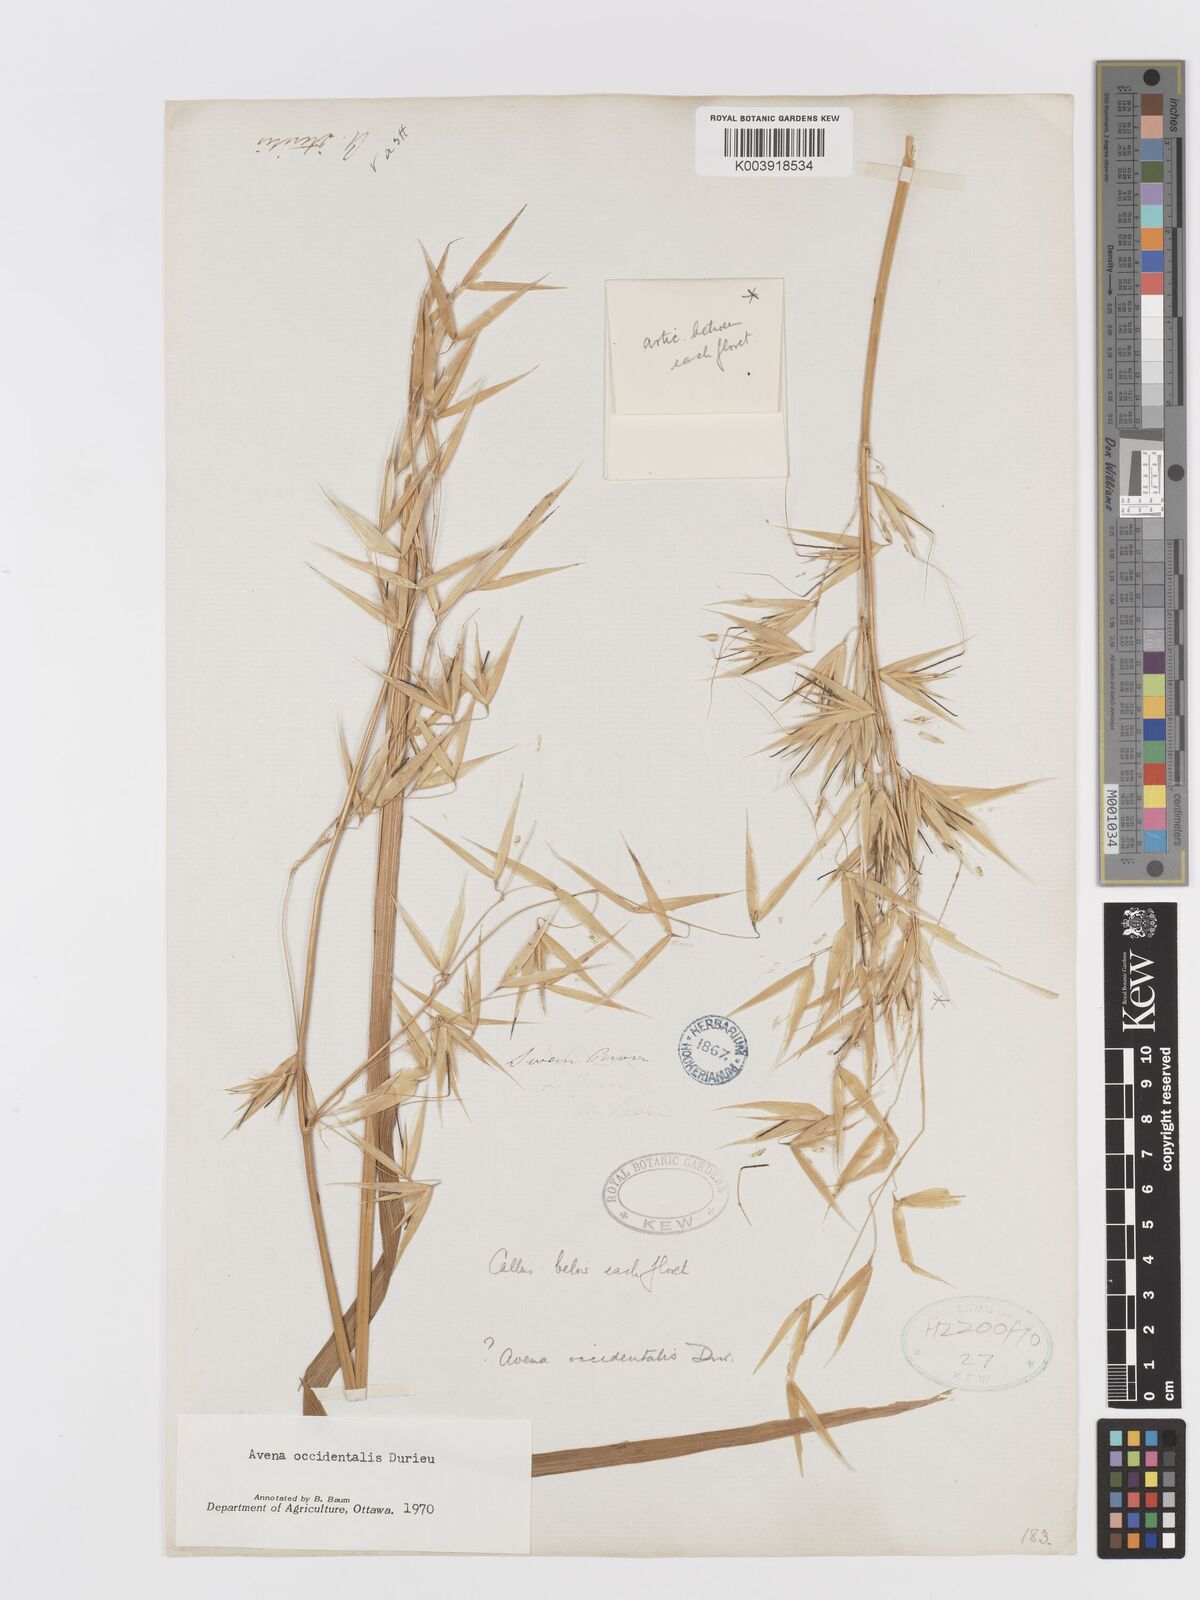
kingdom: Plantae
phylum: Tracheophyta
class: Liliopsida
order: Poales
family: Poaceae
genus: Avena
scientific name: Avena fatua
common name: Wild oat
